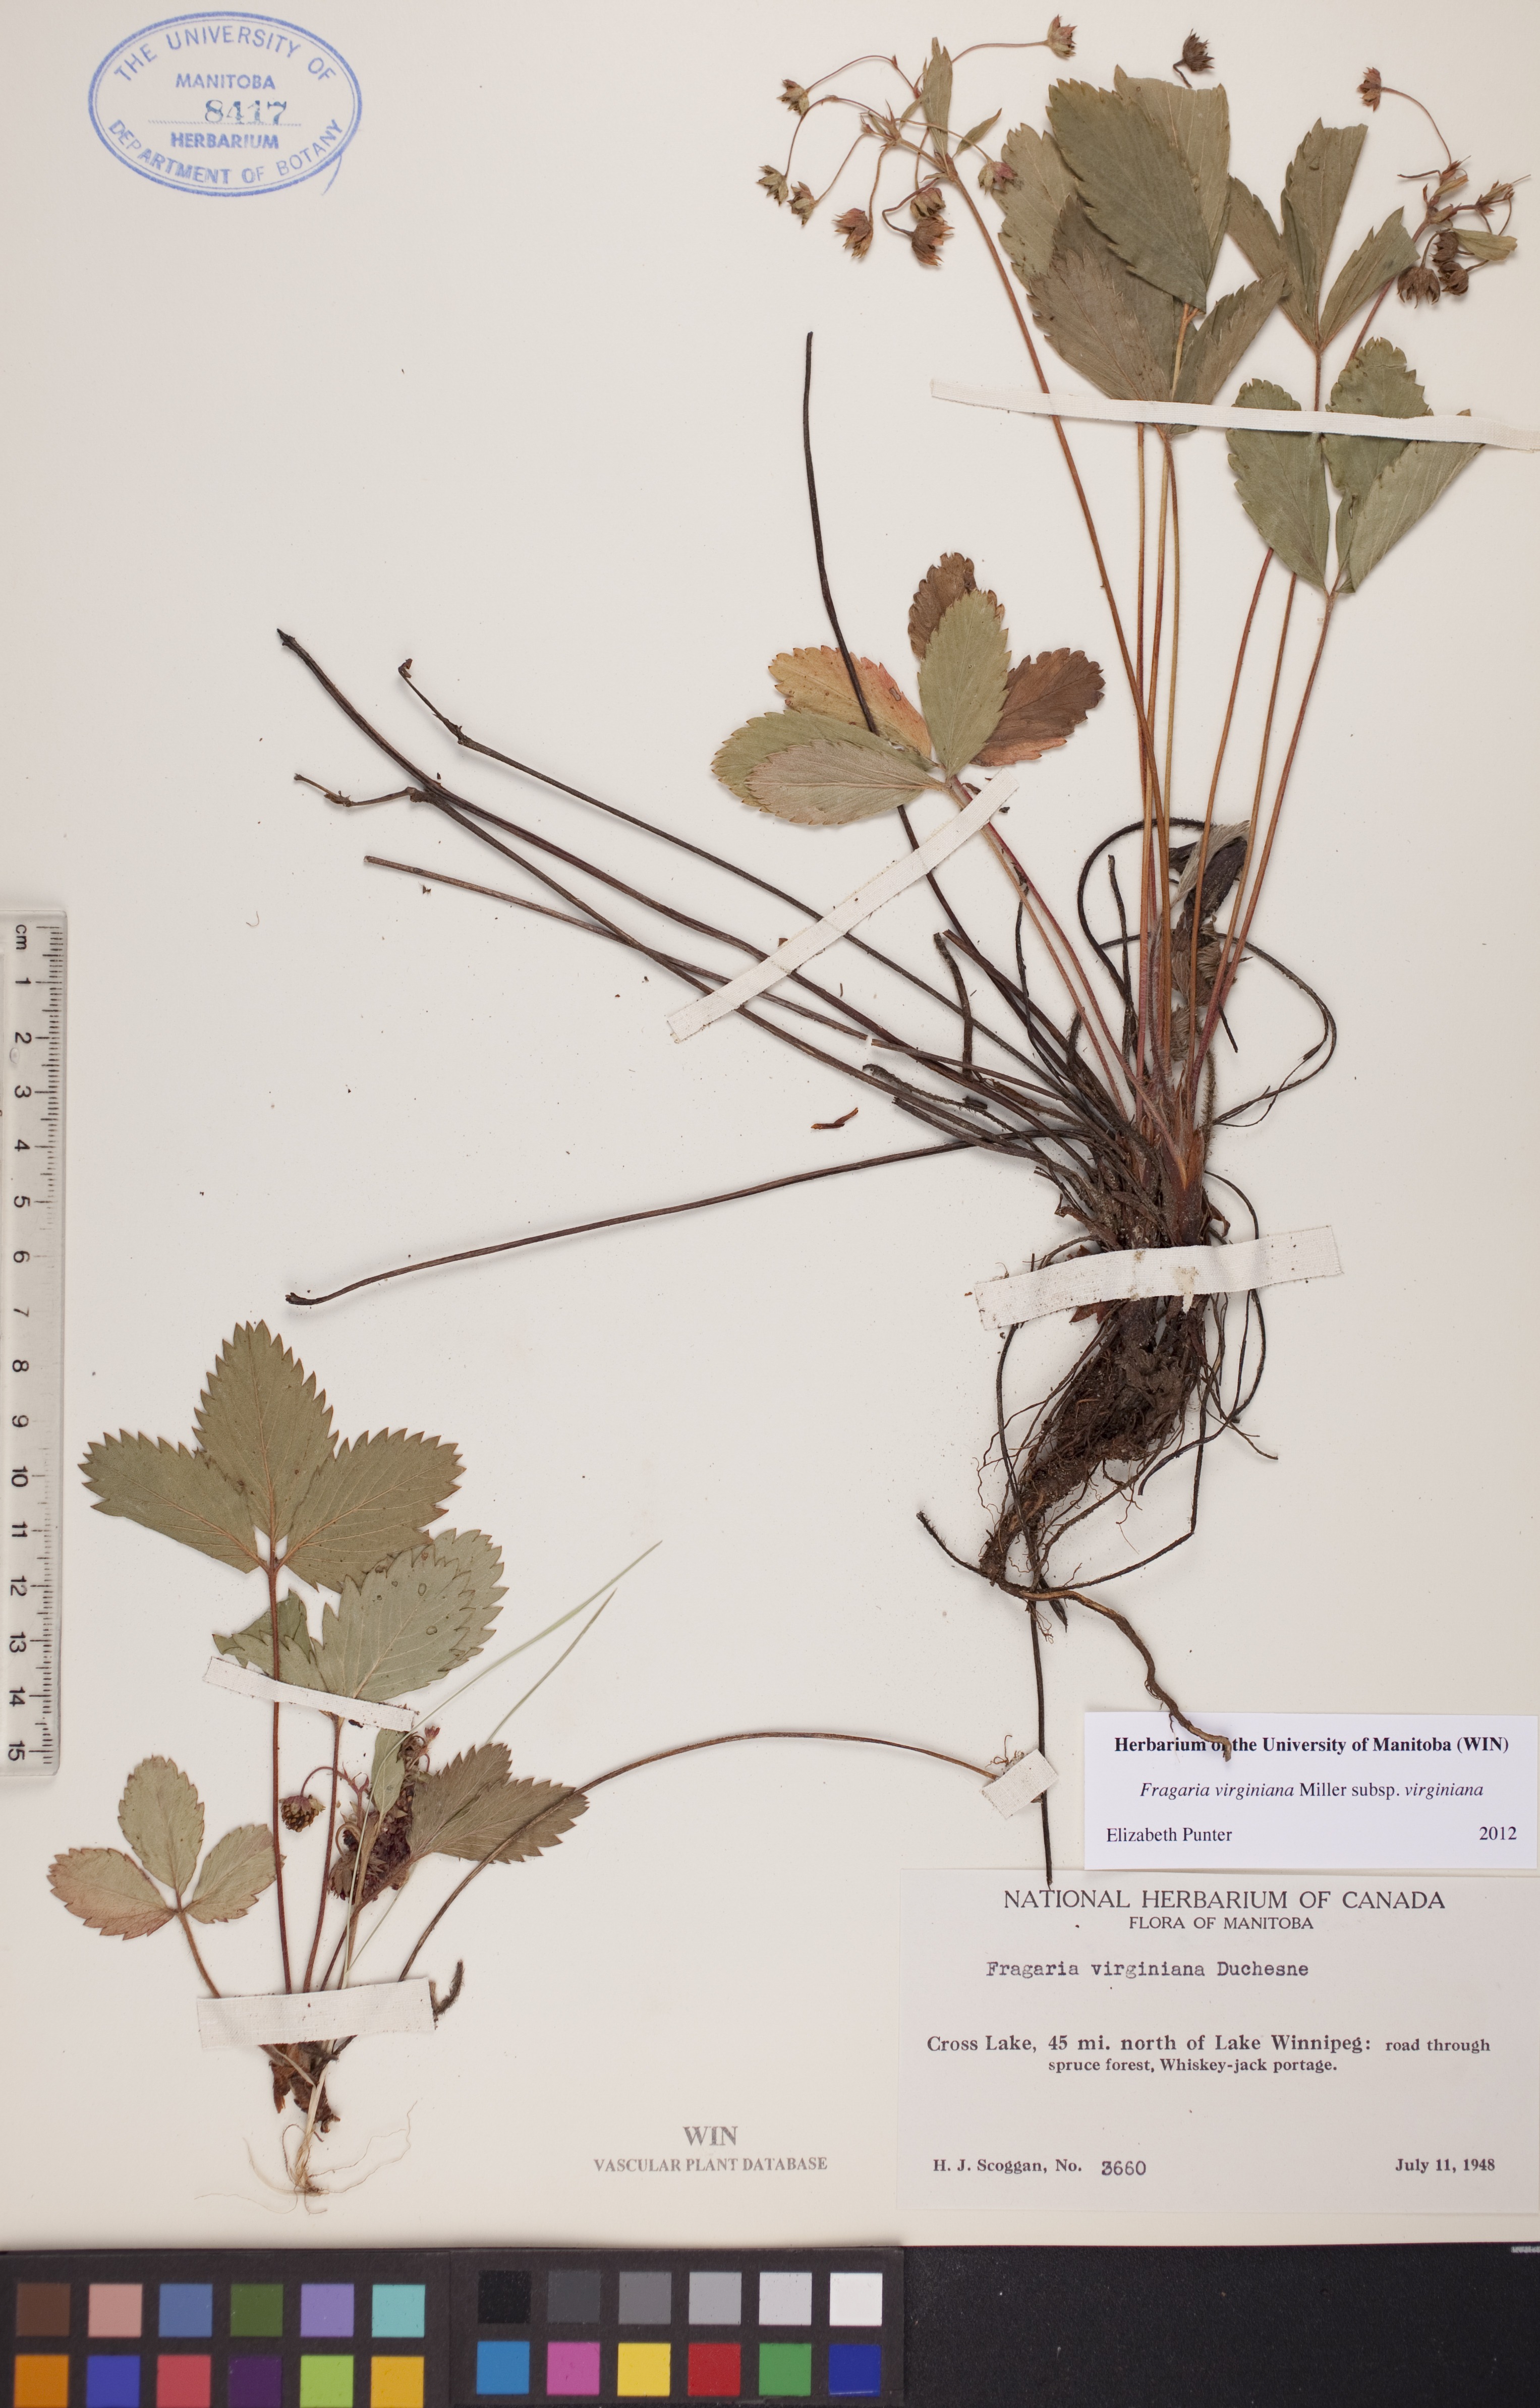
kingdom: Plantae
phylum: Tracheophyta
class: Magnoliopsida
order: Rosales
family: Rosaceae
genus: Fragaria
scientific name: Fragaria virginiana
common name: Thickleaved wild strawberry
